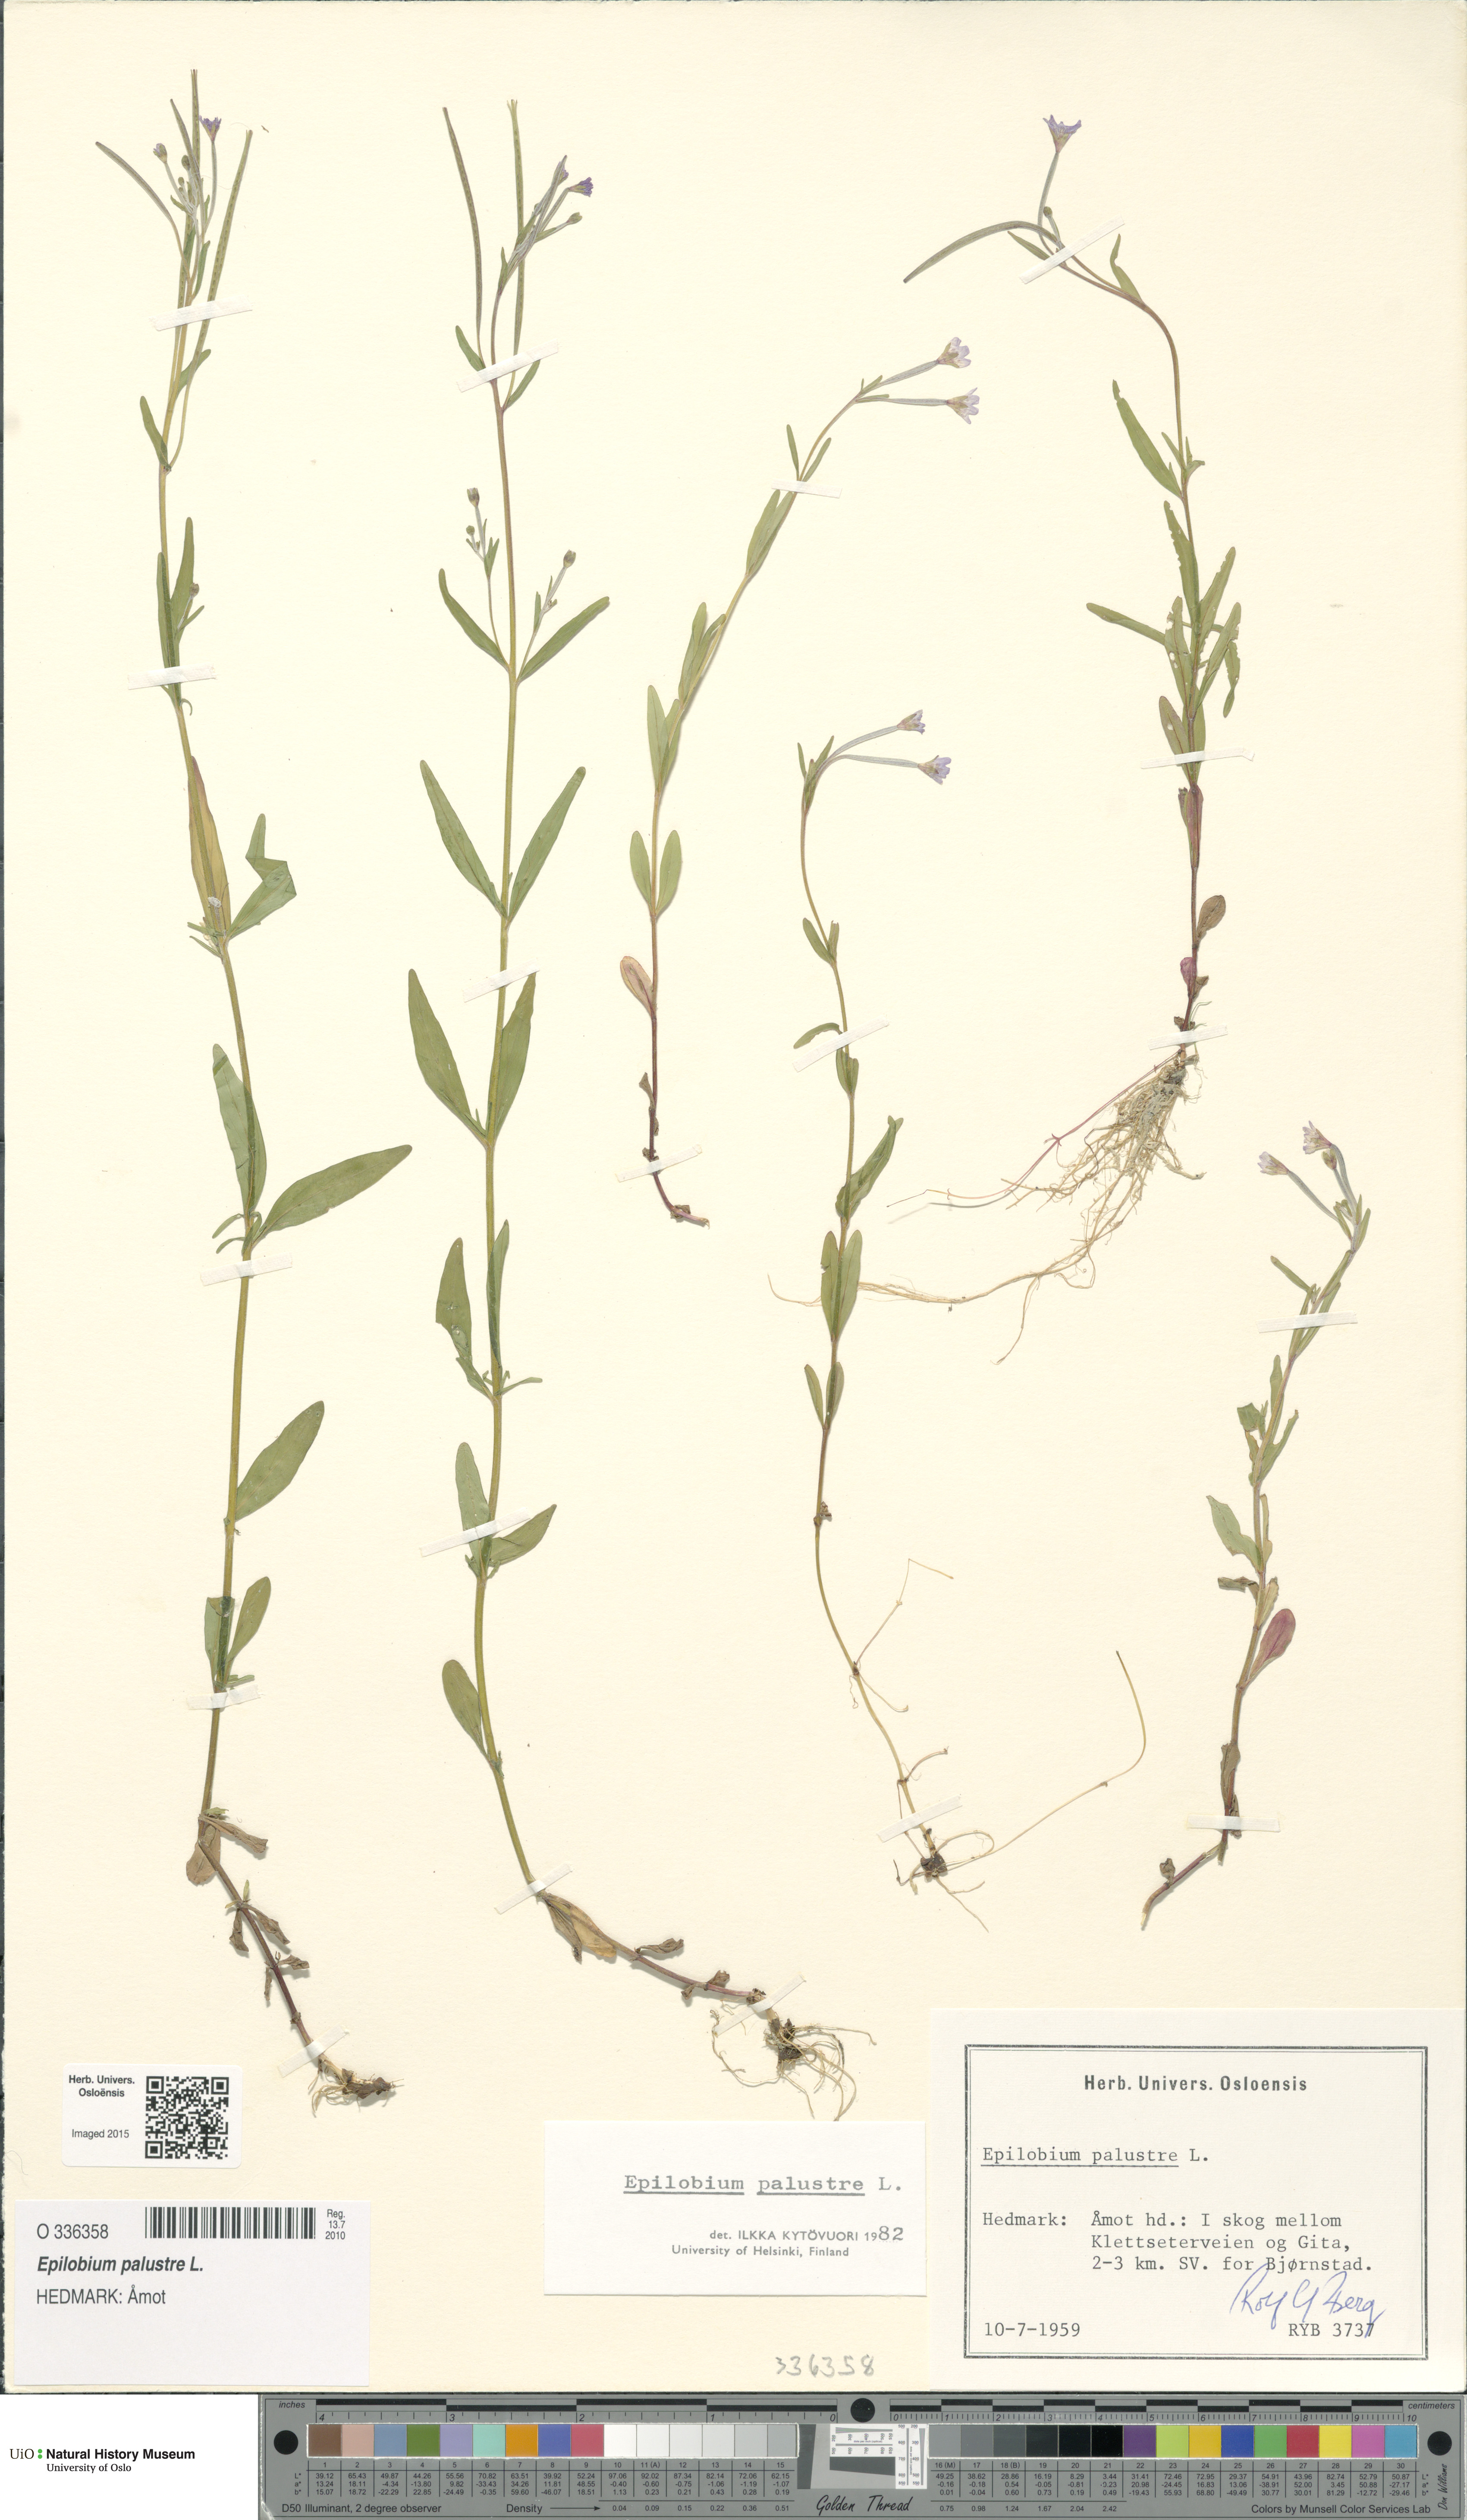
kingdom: Plantae
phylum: Tracheophyta
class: Magnoliopsida
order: Myrtales
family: Onagraceae
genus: Epilobium
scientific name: Epilobium palustre
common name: Marsh willowherb
